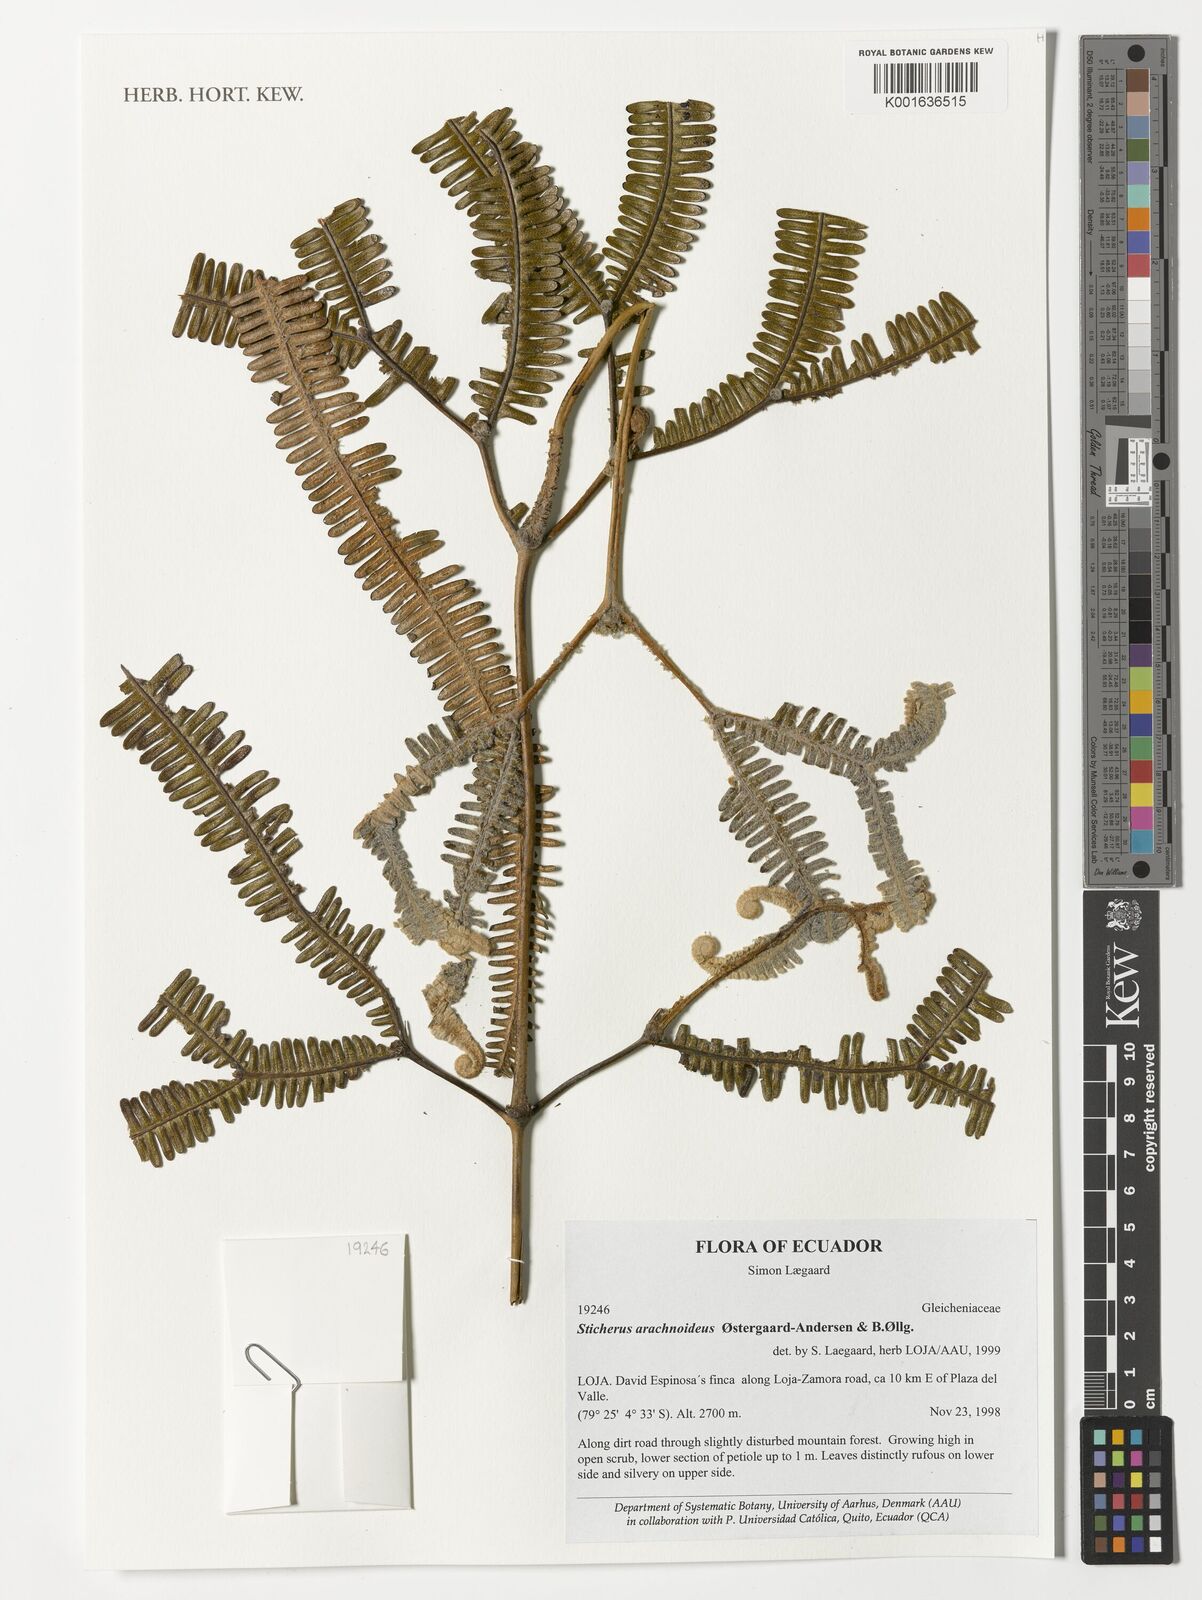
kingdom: Plantae
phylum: Tracheophyta
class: Polypodiopsida
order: Gleicheniales
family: Gleicheniaceae
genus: Sticherus
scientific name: Sticherus arachnoideus
